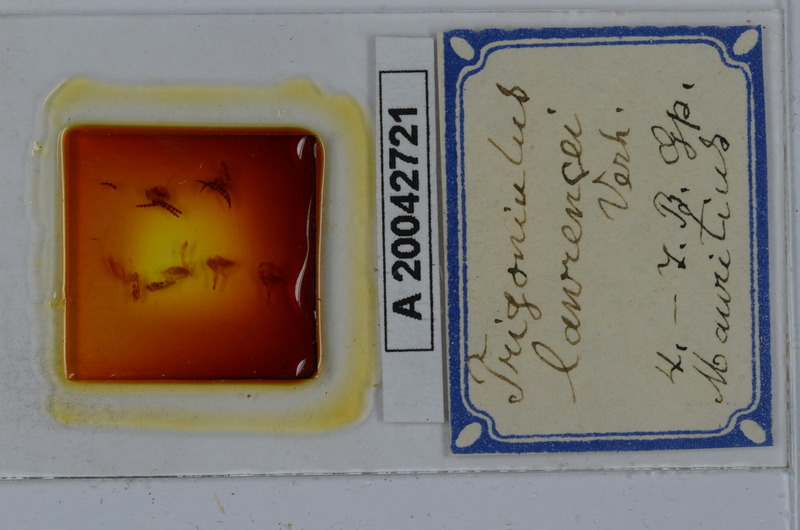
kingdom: Animalia
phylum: Arthropoda
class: Diplopoda
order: Spirobolida
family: Pachybolidae
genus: Leptogoniulus
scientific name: Leptogoniulus sorornus
